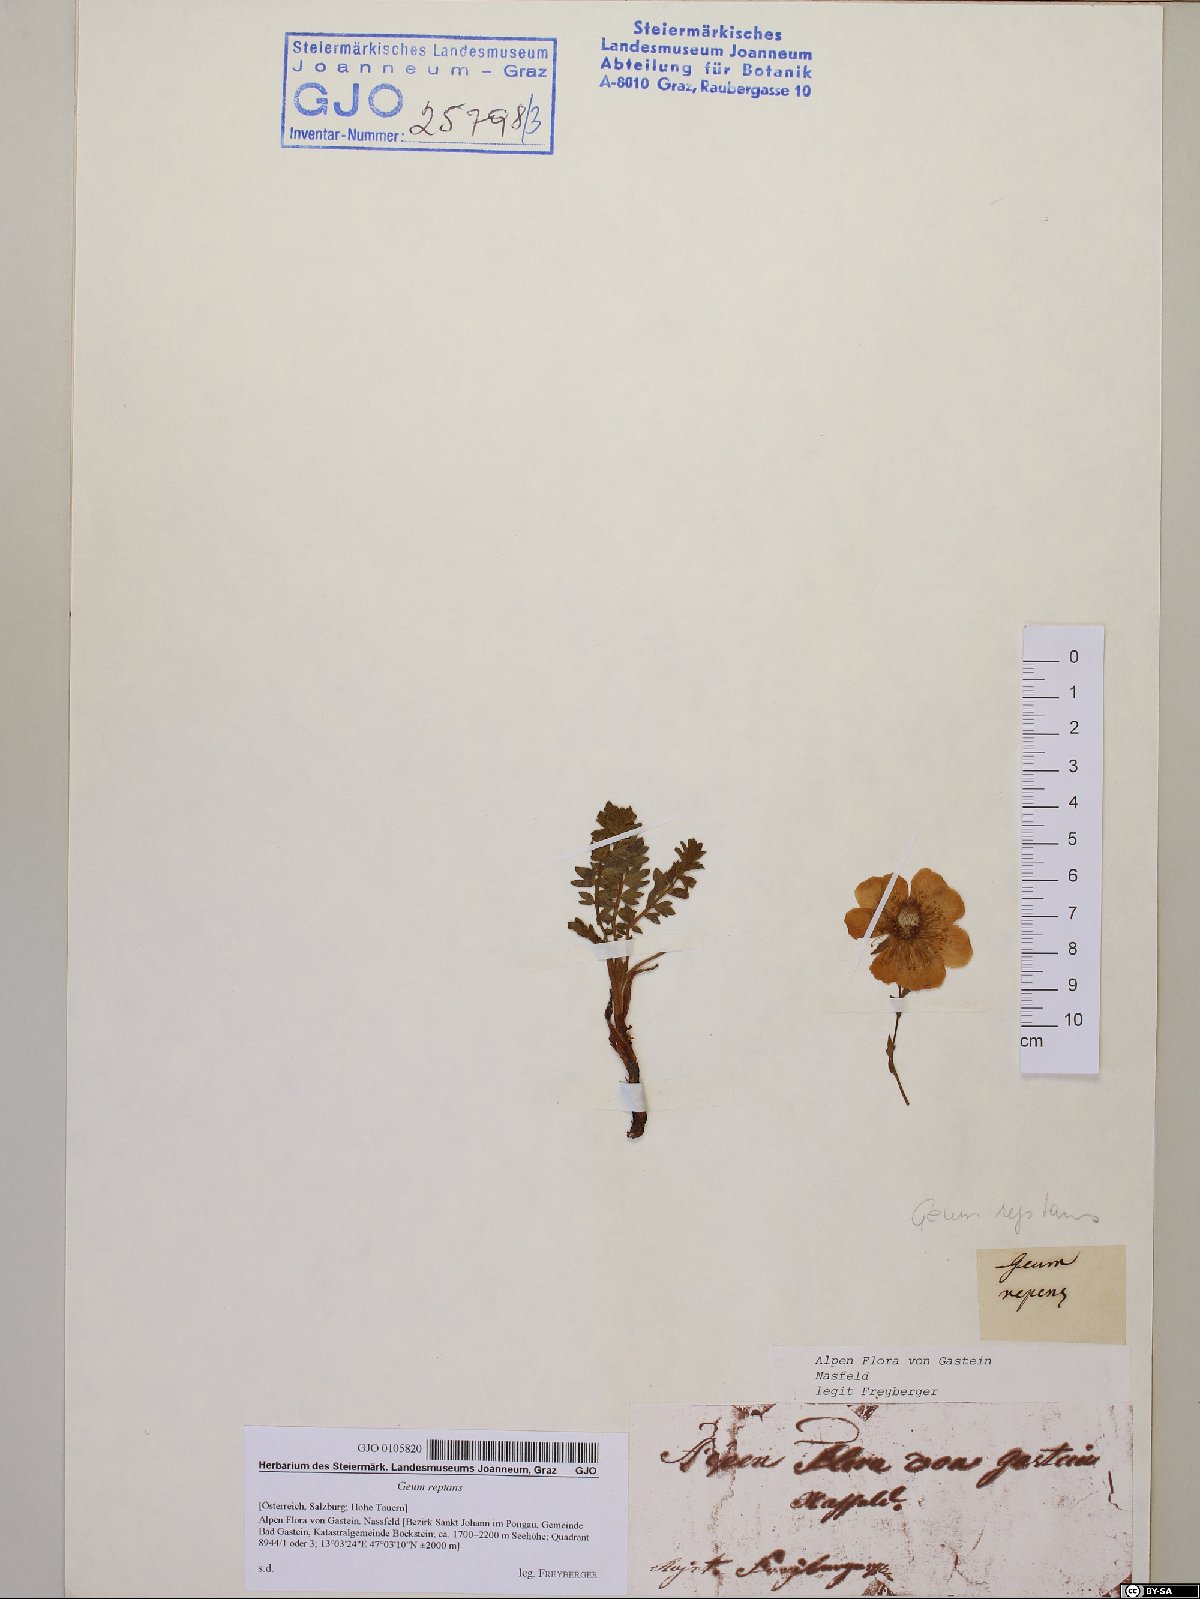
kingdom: Plantae
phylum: Tracheophyta
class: Magnoliopsida
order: Rosales
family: Rosaceae
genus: Geum
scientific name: Geum reptans
